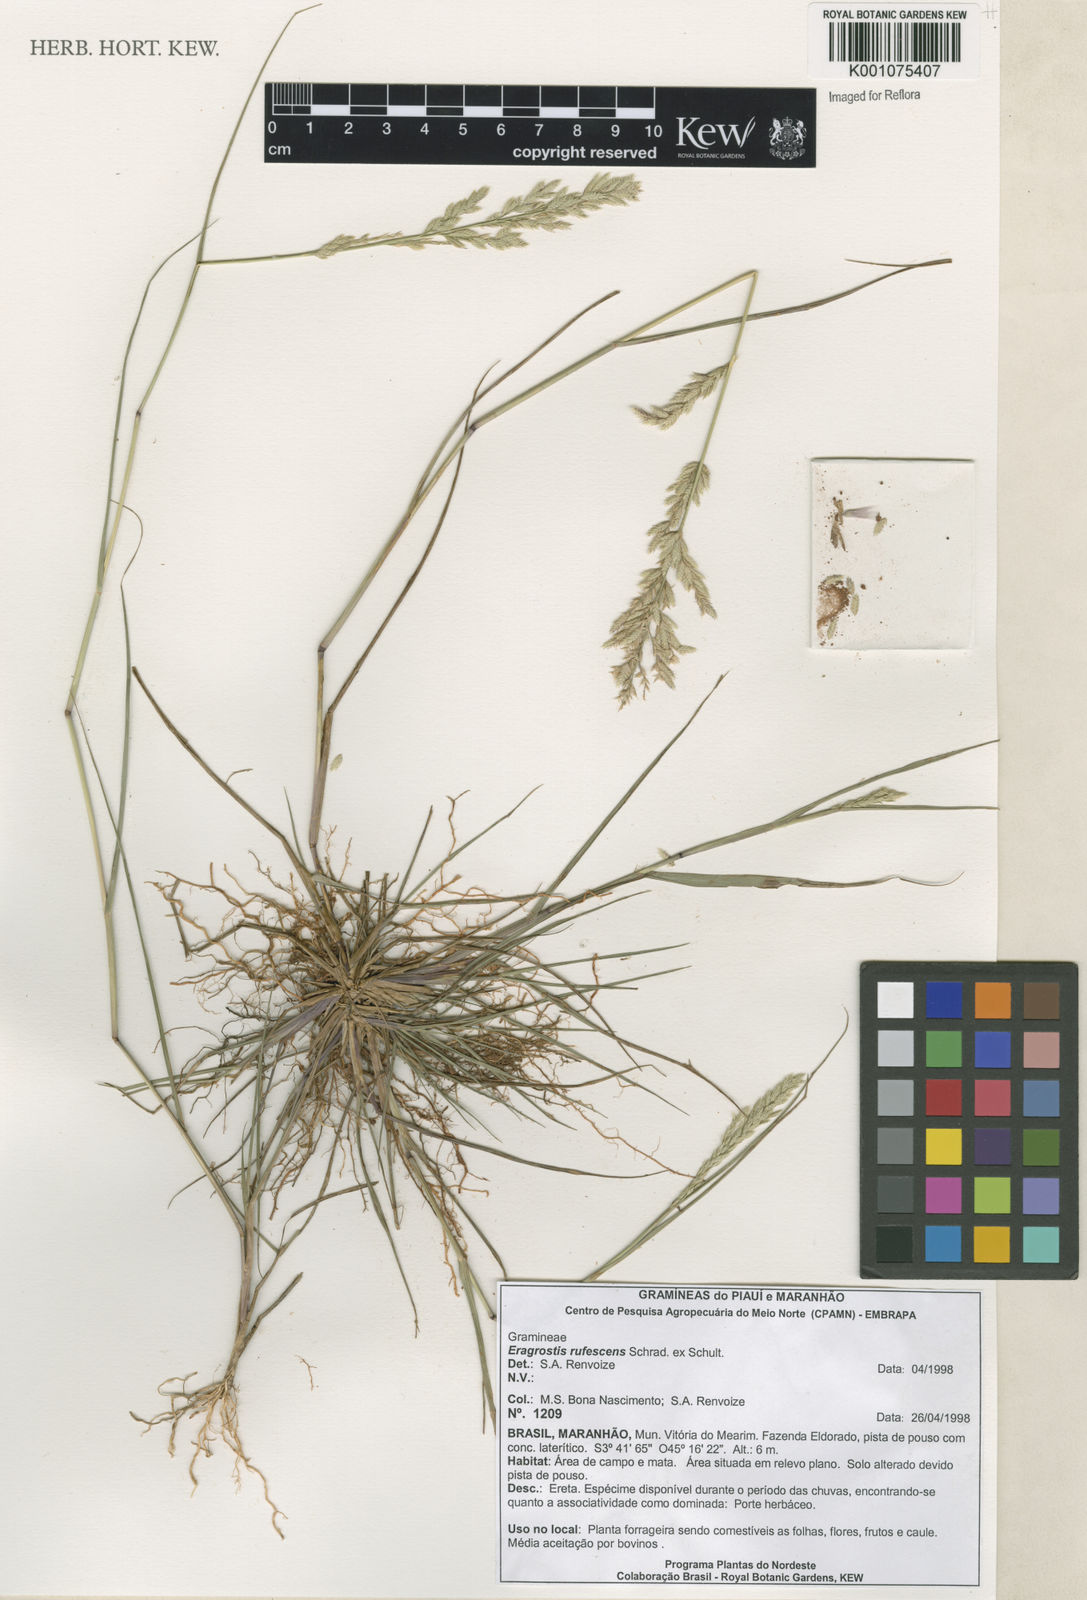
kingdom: Plantae
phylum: Tracheophyta
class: Liliopsida
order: Poales
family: Poaceae
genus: Eragrostis
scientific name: Eragrostis rufescens
